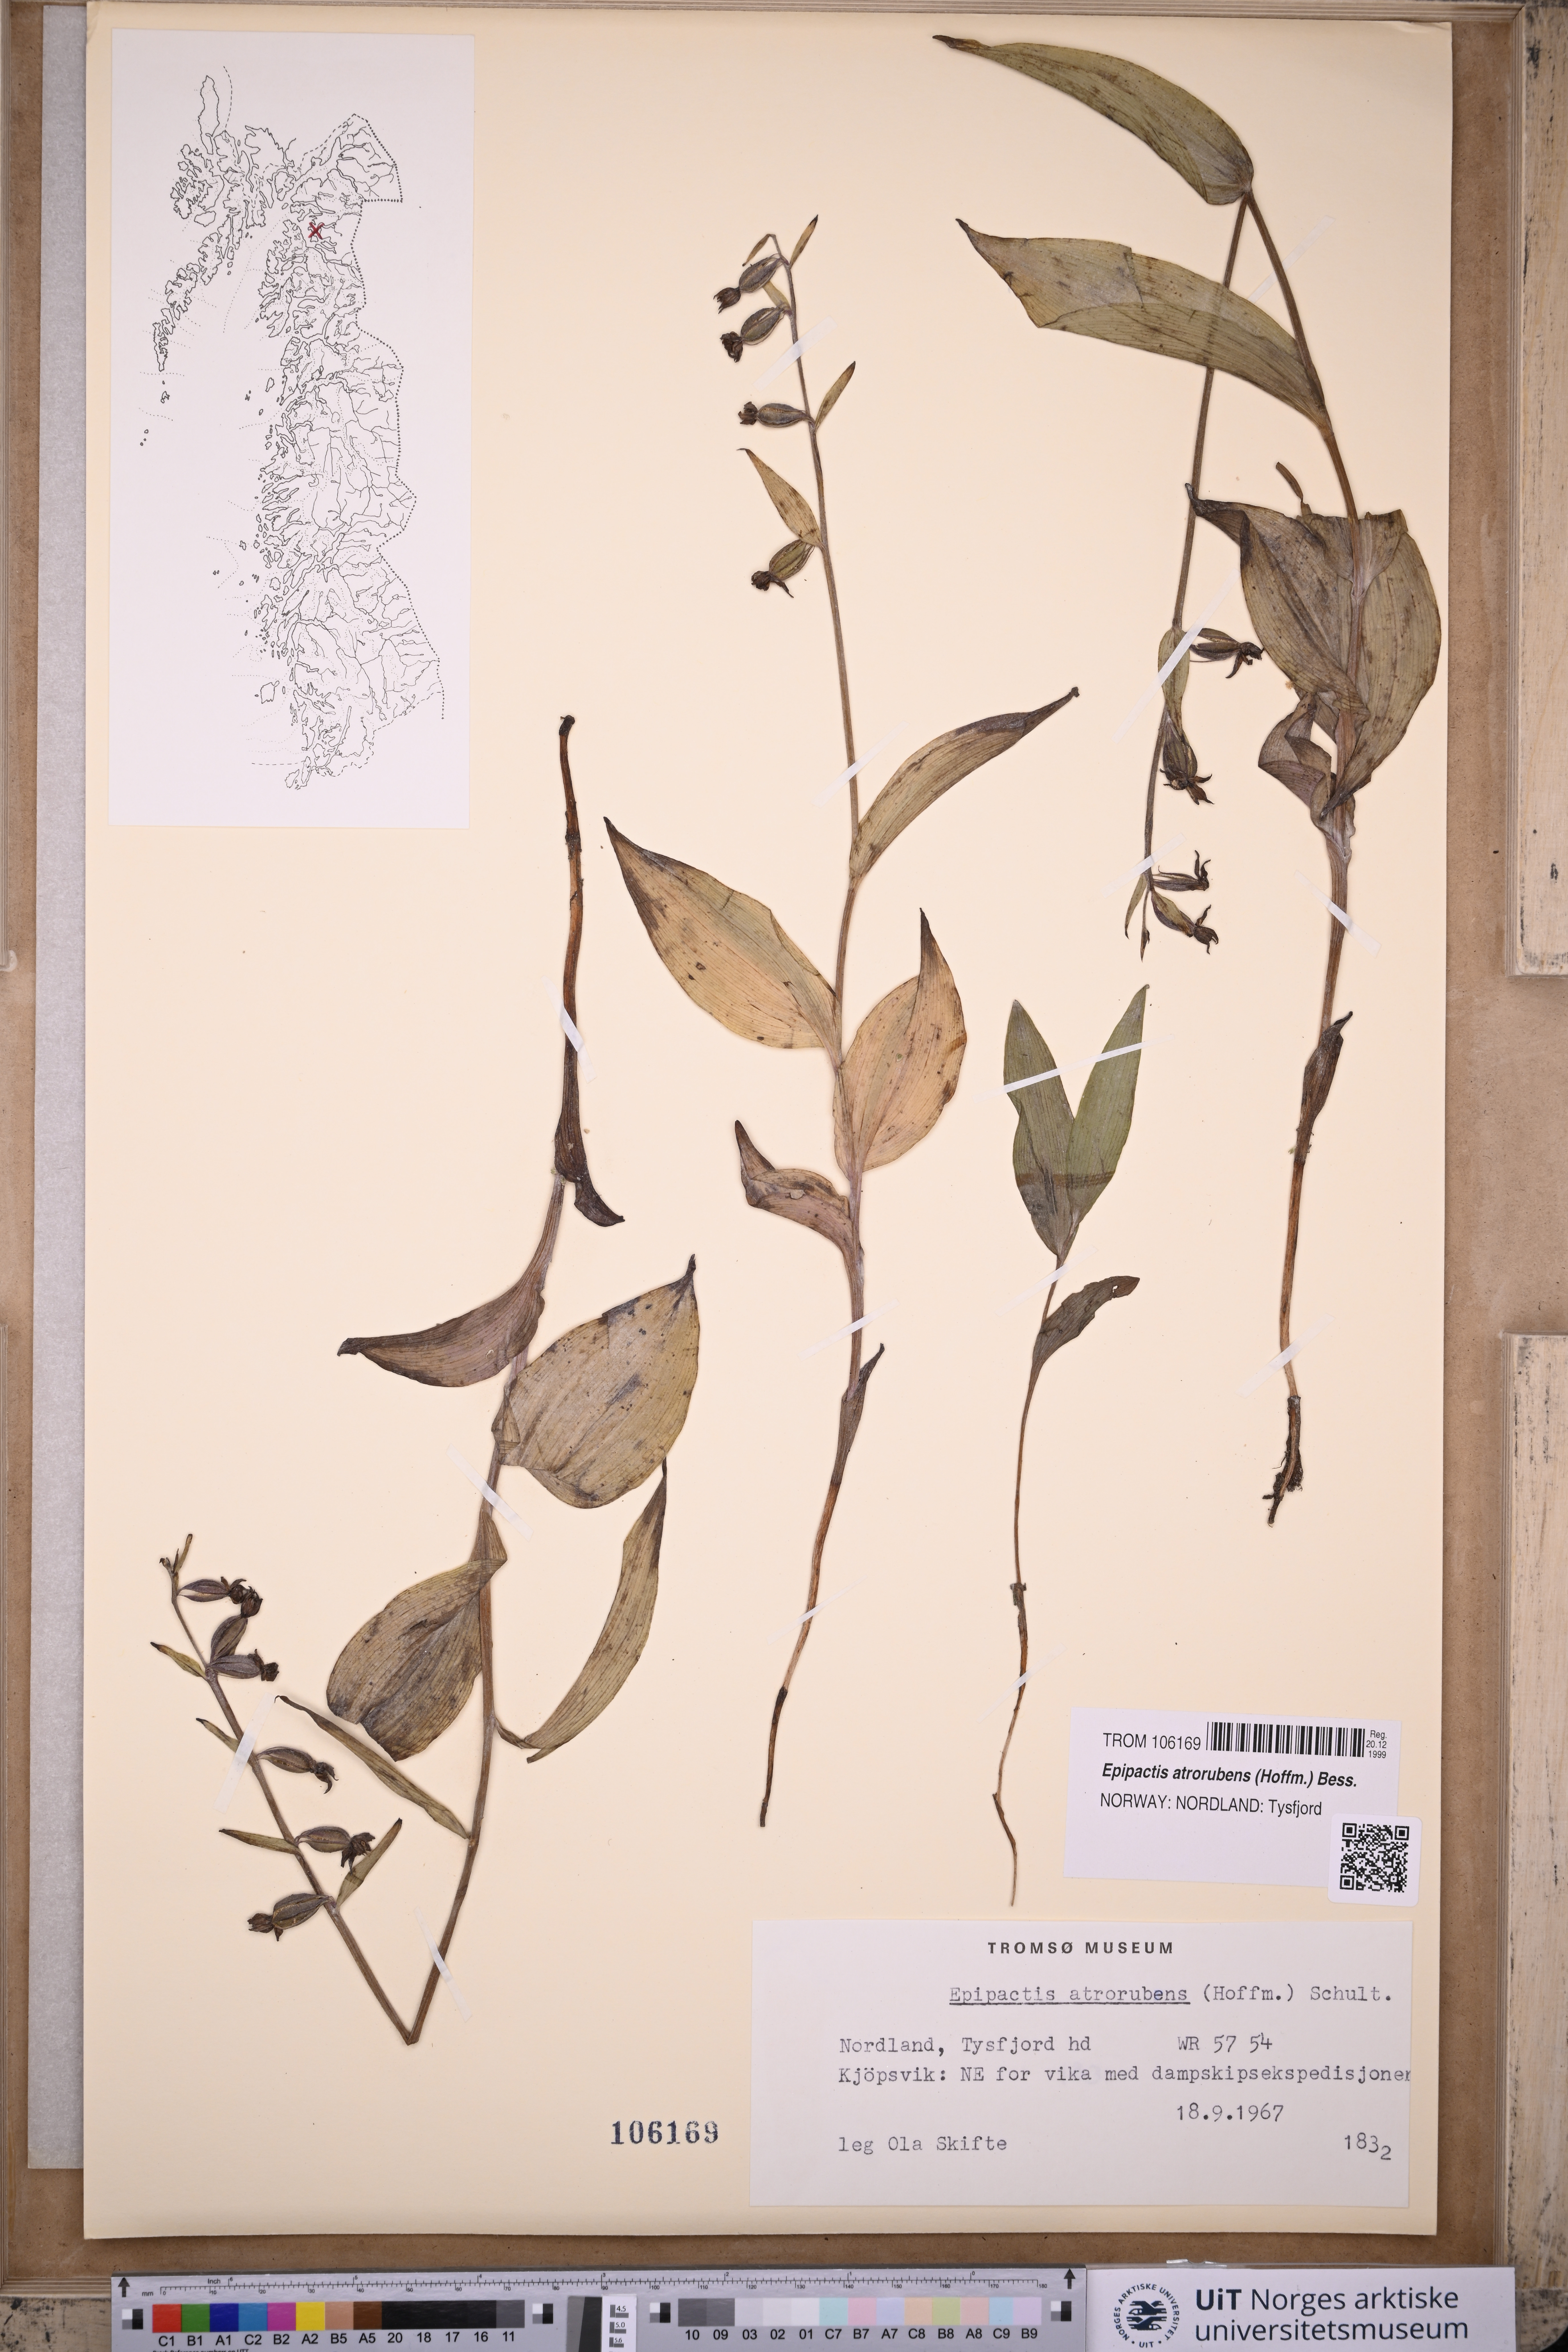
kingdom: Plantae
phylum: Tracheophyta
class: Liliopsida
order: Asparagales
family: Orchidaceae
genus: Epipactis
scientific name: Epipactis atrorubens
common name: Dark-red helleborine
